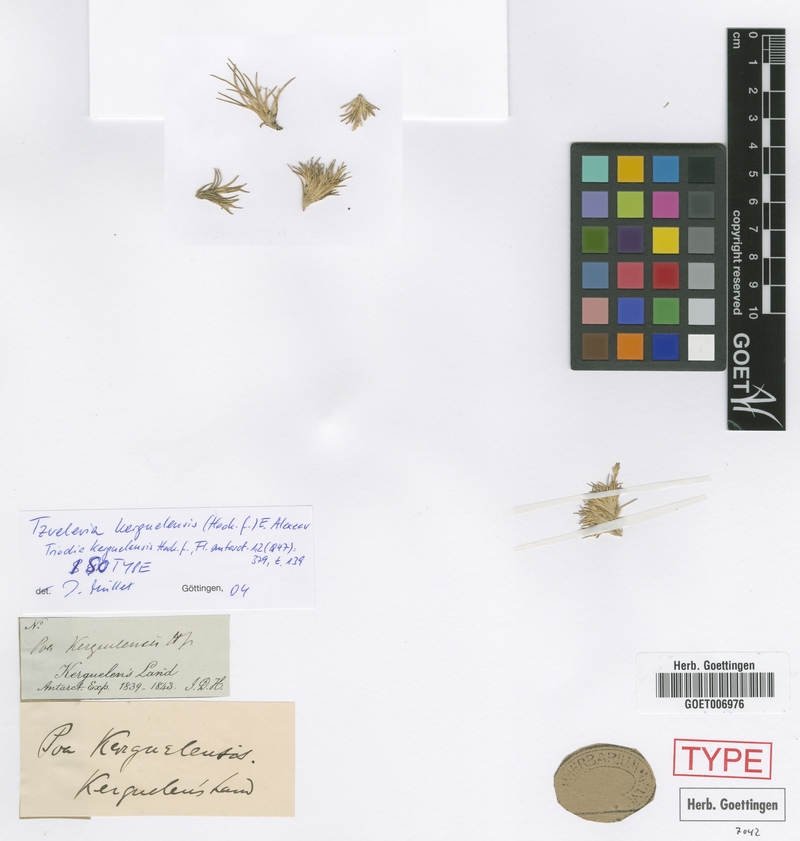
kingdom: Plantae
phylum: Tracheophyta
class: Liliopsida
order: Poales
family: Poaceae
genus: Poa
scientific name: Poa kerguelensis
